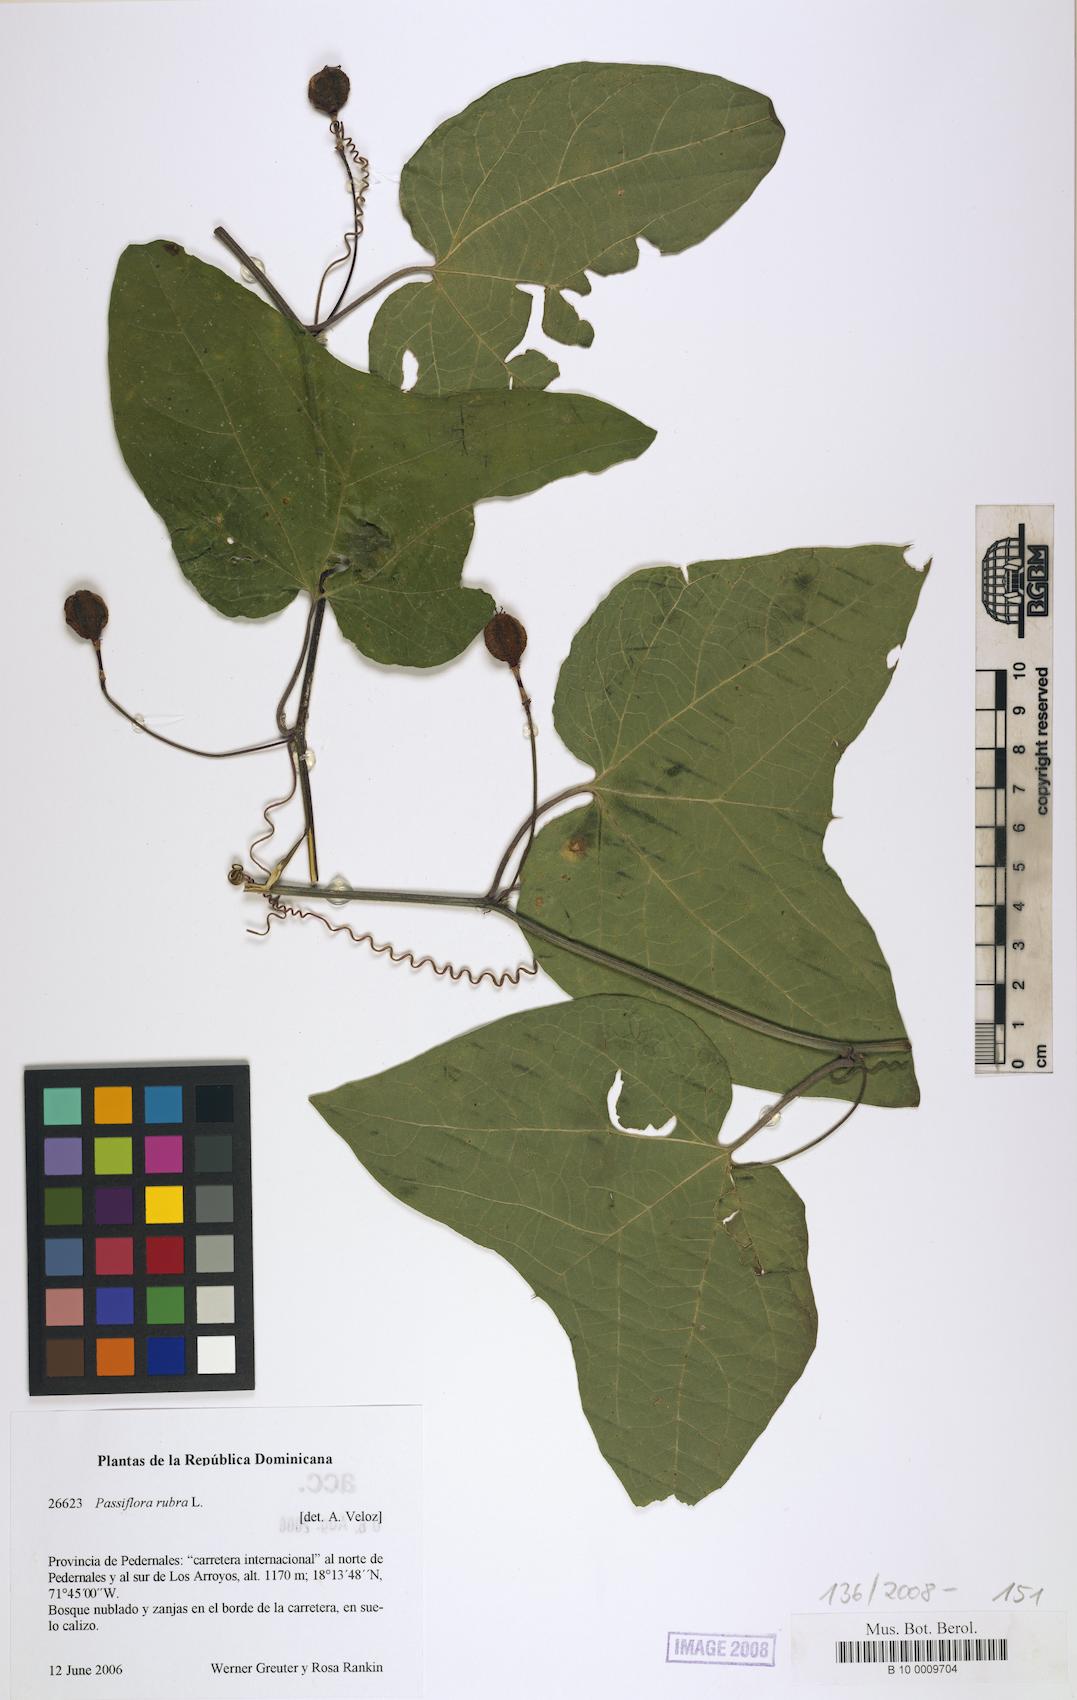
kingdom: Plantae
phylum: Tracheophyta
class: Magnoliopsida
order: Malpighiales
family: Passifloraceae
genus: Passiflora
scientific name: Passiflora rubra
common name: Snakeberry vine
